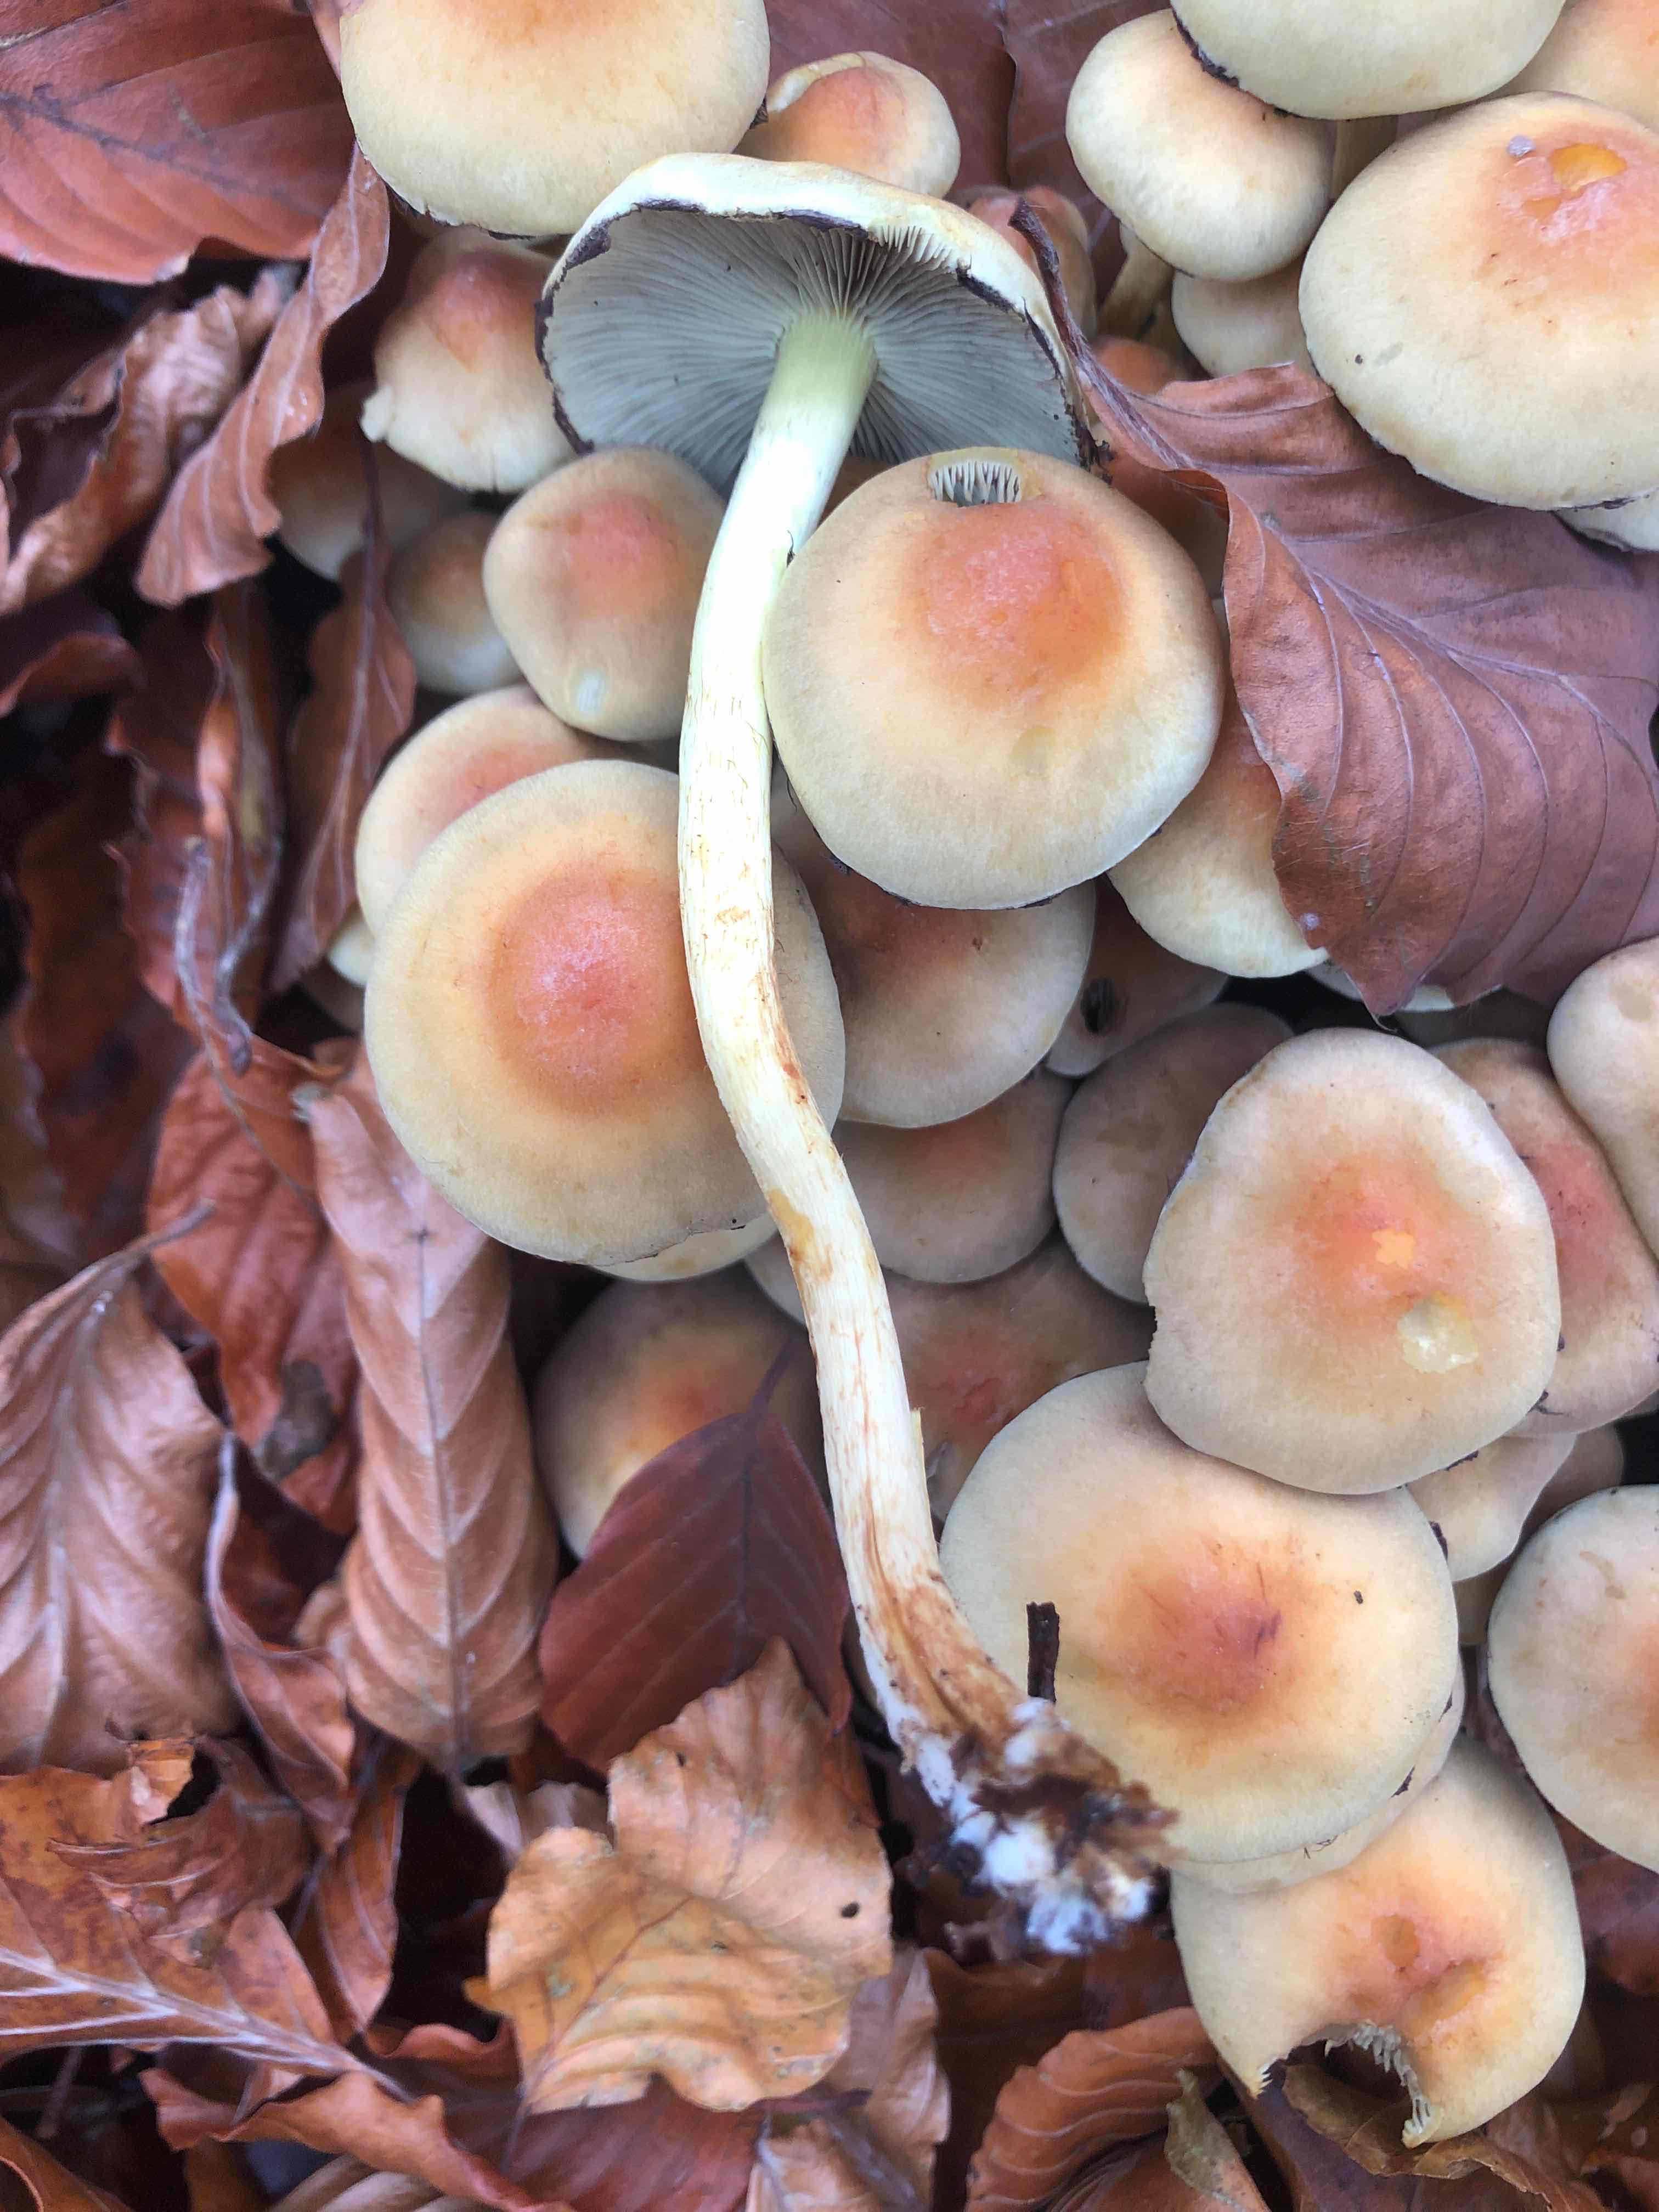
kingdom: Fungi
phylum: Basidiomycota
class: Agaricomycetes
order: Agaricales
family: Strophariaceae
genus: Hypholoma
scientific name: Hypholoma
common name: svovlhat
